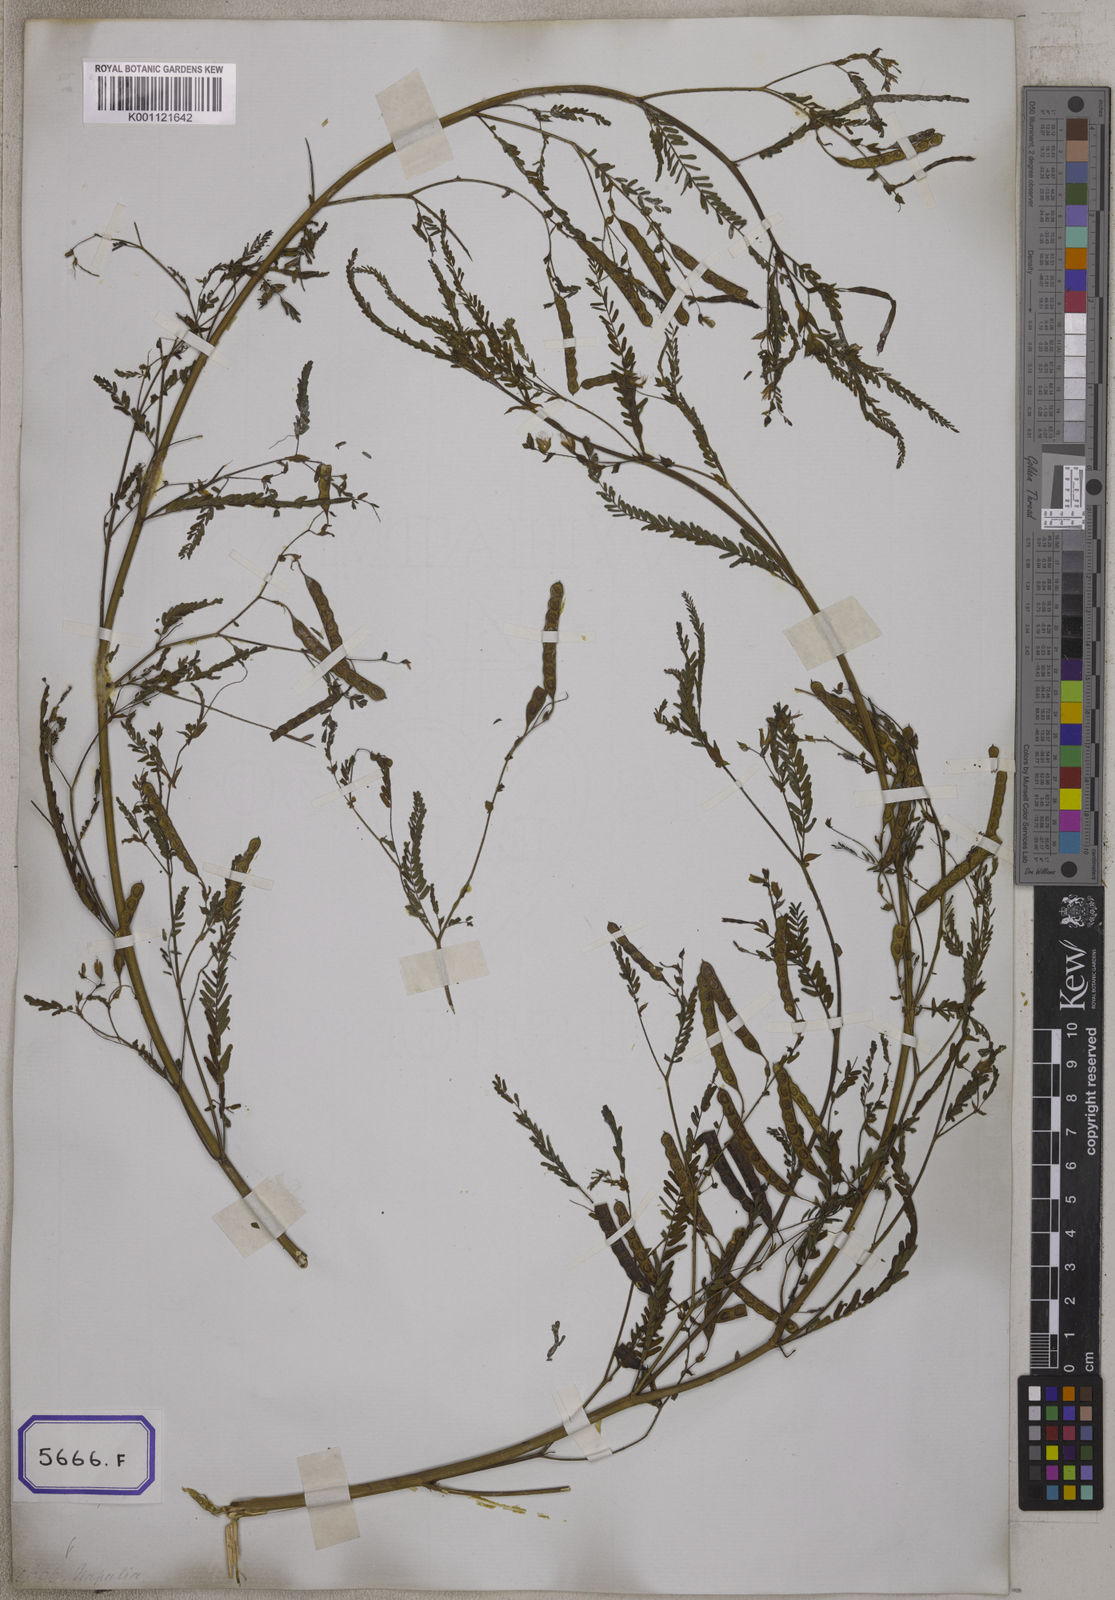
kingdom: Plantae
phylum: Tracheophyta
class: Magnoliopsida
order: Fabales
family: Fabaceae
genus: Aeschynomene
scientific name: Aeschynomene aspera
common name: Pith plant
